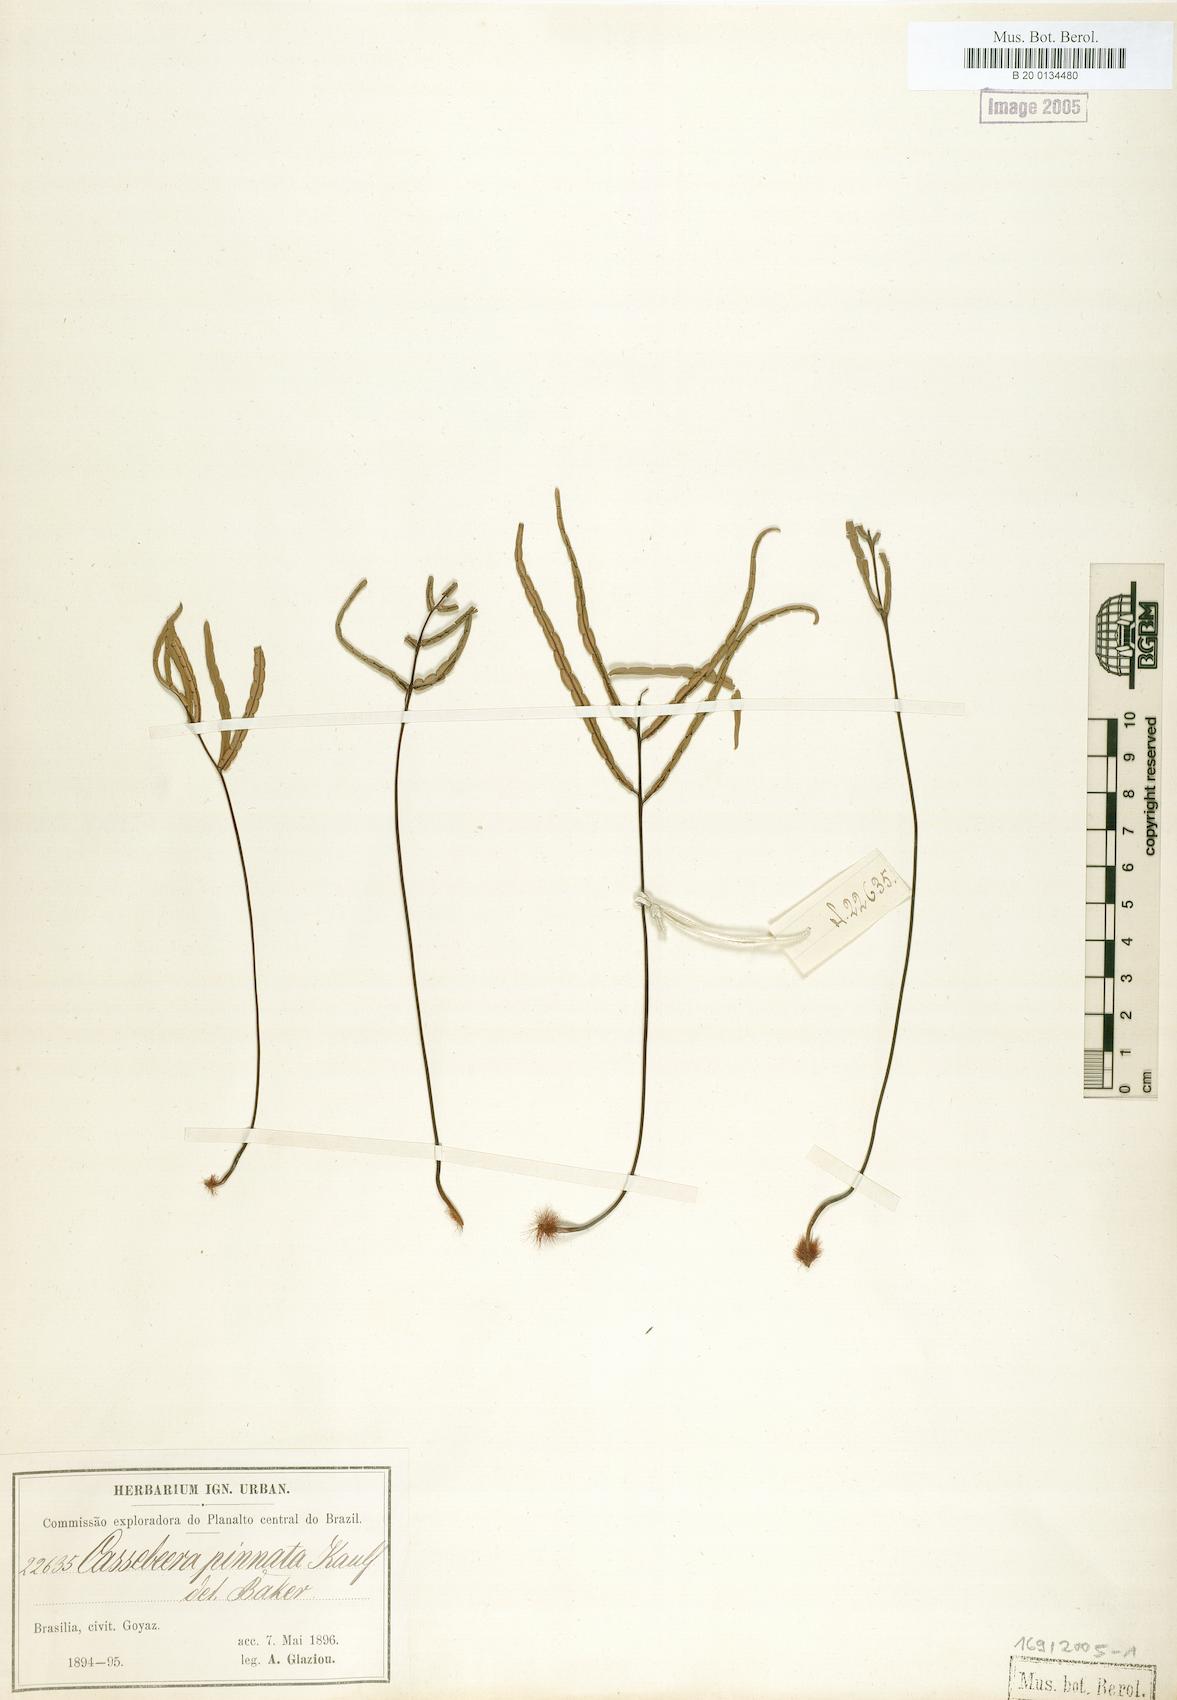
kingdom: Plantae
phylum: Tracheophyta
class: Polypodiopsida
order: Polypodiales
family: Pteridaceae
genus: Ormopteris
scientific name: Ormopteris pinnata
